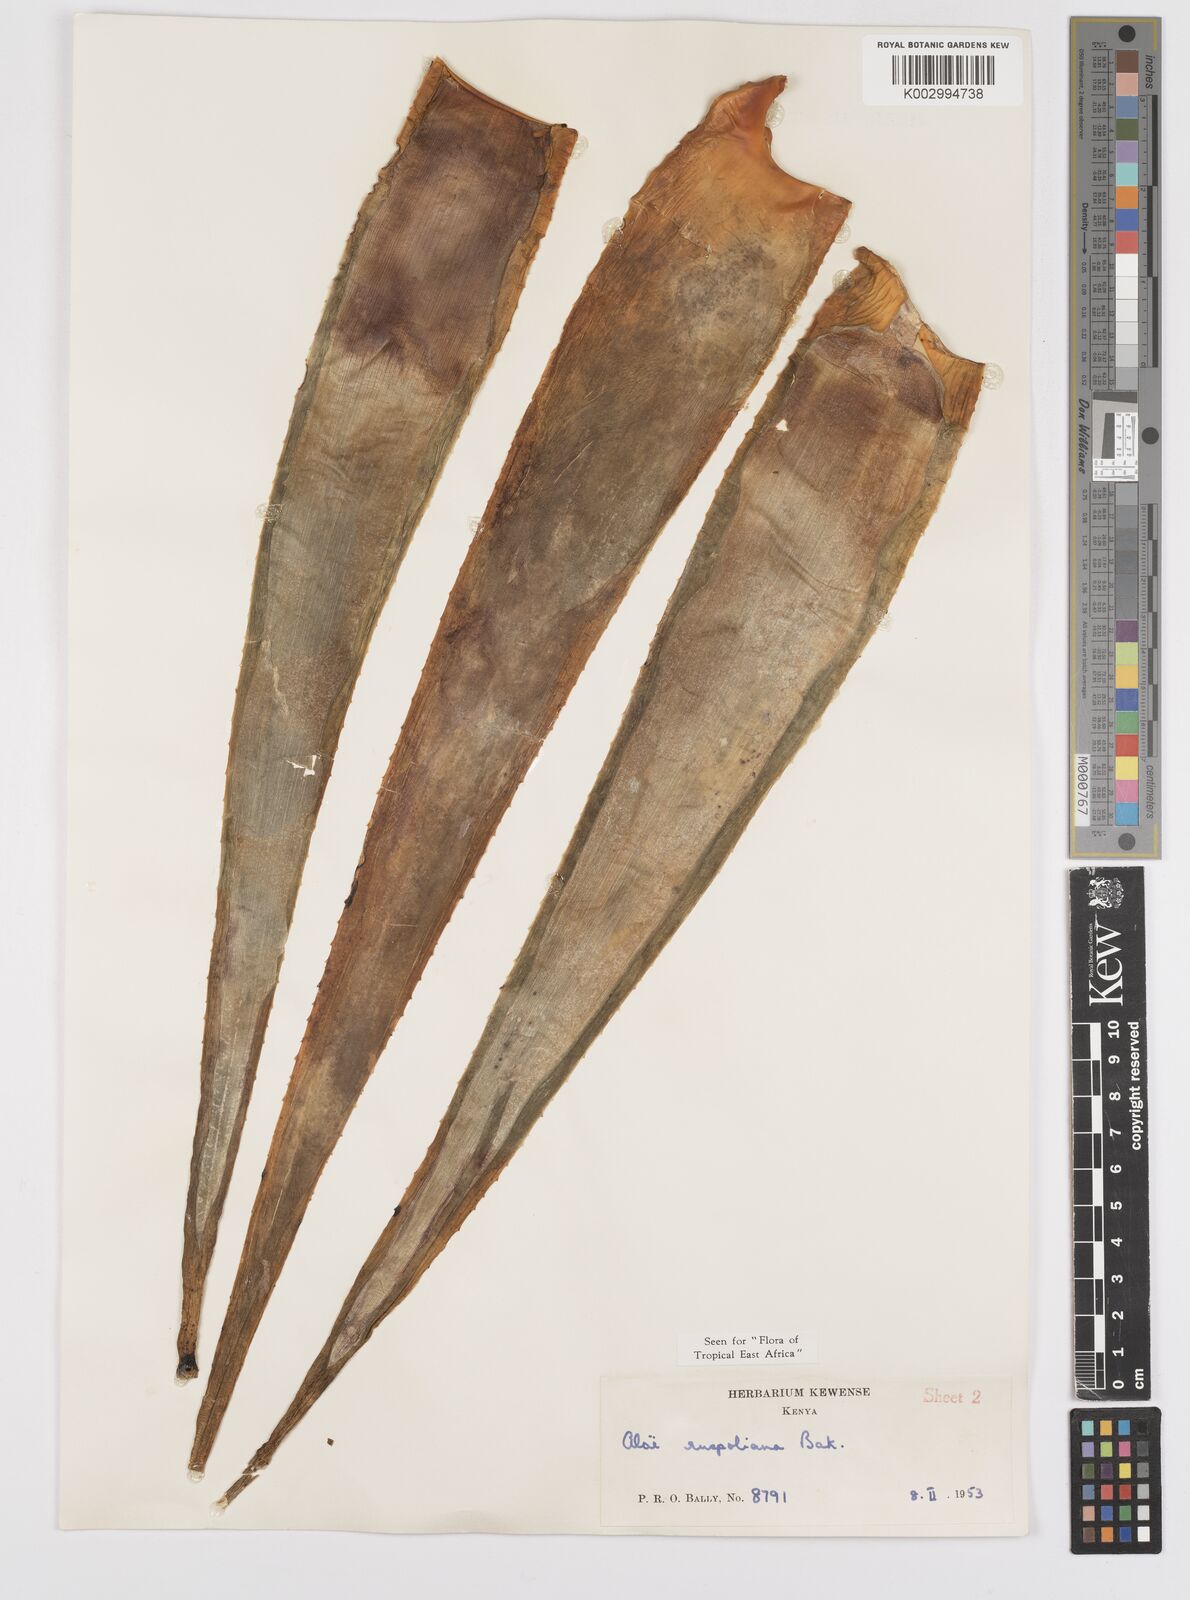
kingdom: Plantae
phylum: Tracheophyta
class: Liliopsida
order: Asparagales
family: Asphodelaceae
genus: Aloe
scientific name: Aloe ruspoliana
